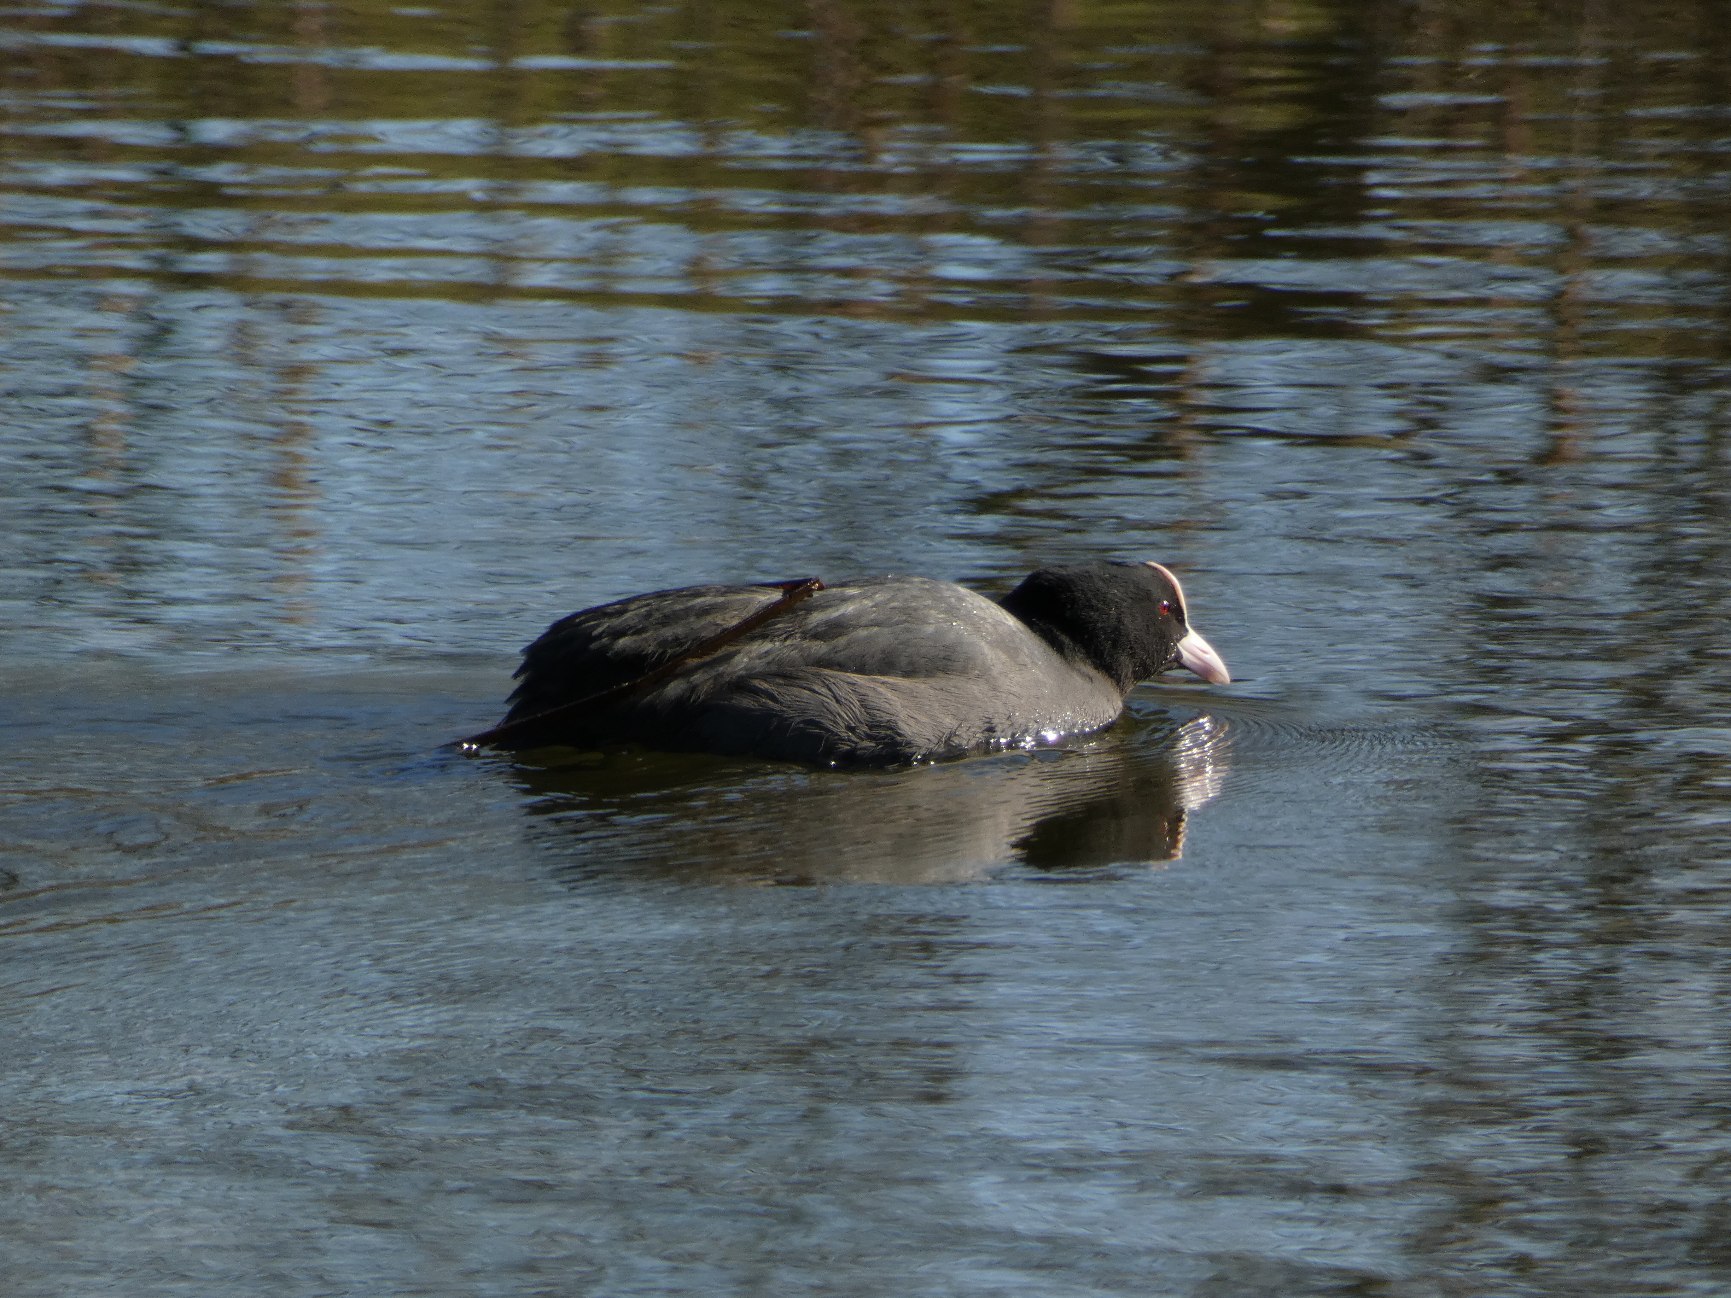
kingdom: Animalia
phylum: Chordata
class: Aves
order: Gruiformes
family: Rallidae
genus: Fulica
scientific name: Fulica atra
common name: Blishøne
